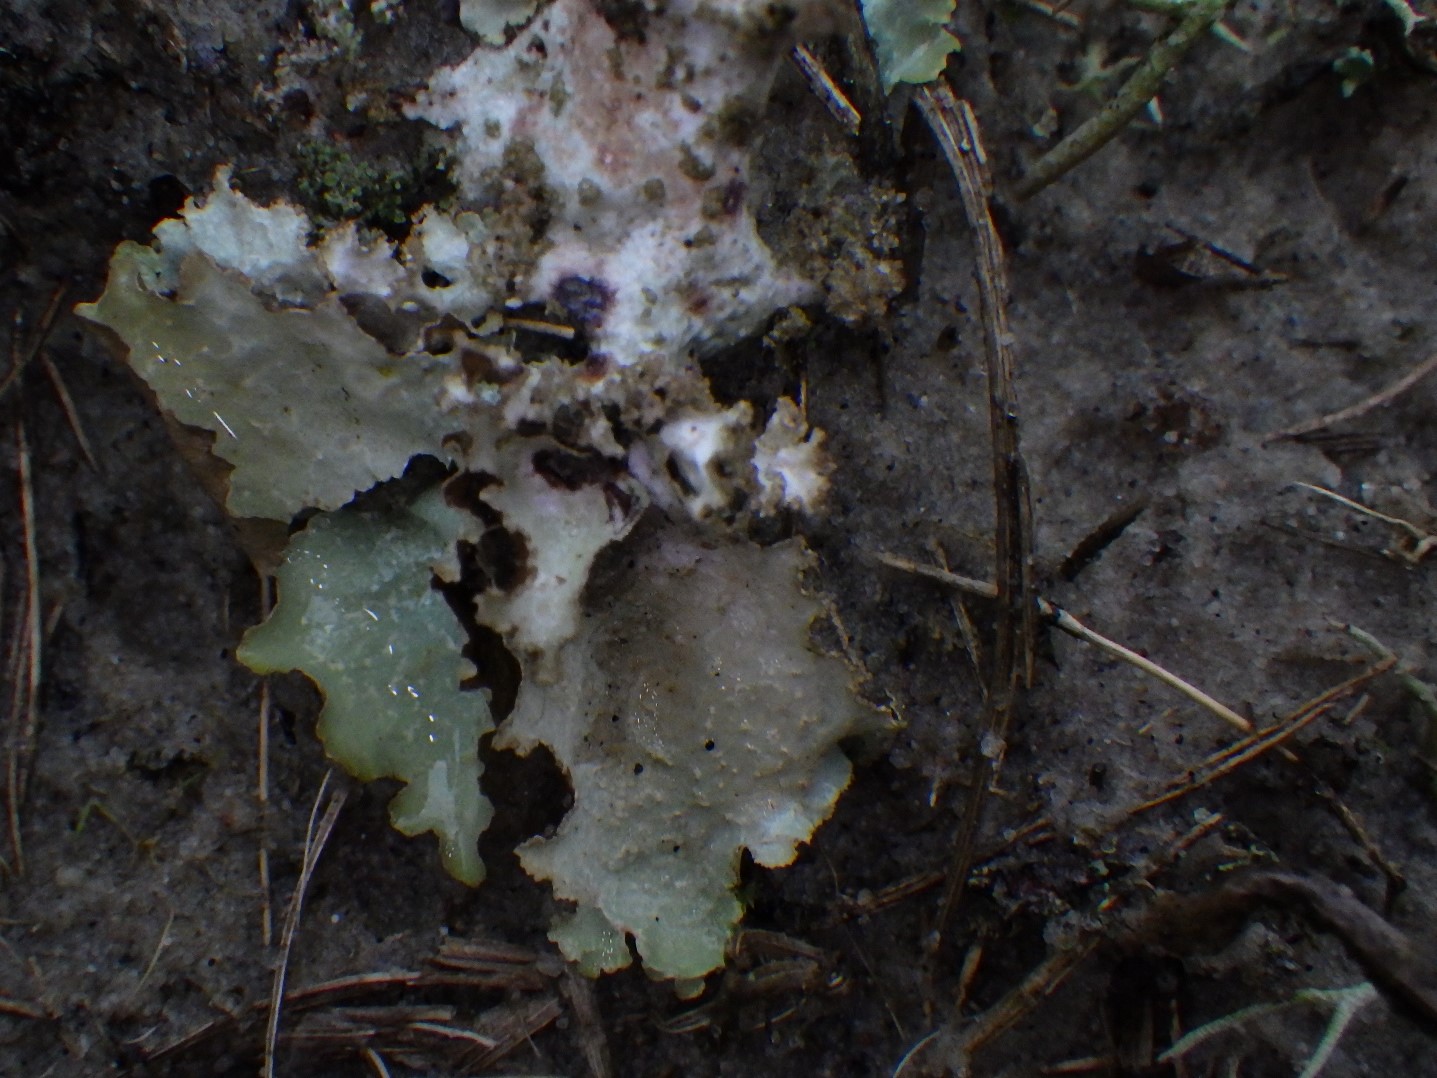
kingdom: Fungi
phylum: Ascomycota
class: Lecanoromycetes
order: Lecanorales
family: Parmeliaceae
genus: Platismatia
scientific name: Platismatia glauca
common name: blågrå papirlav
